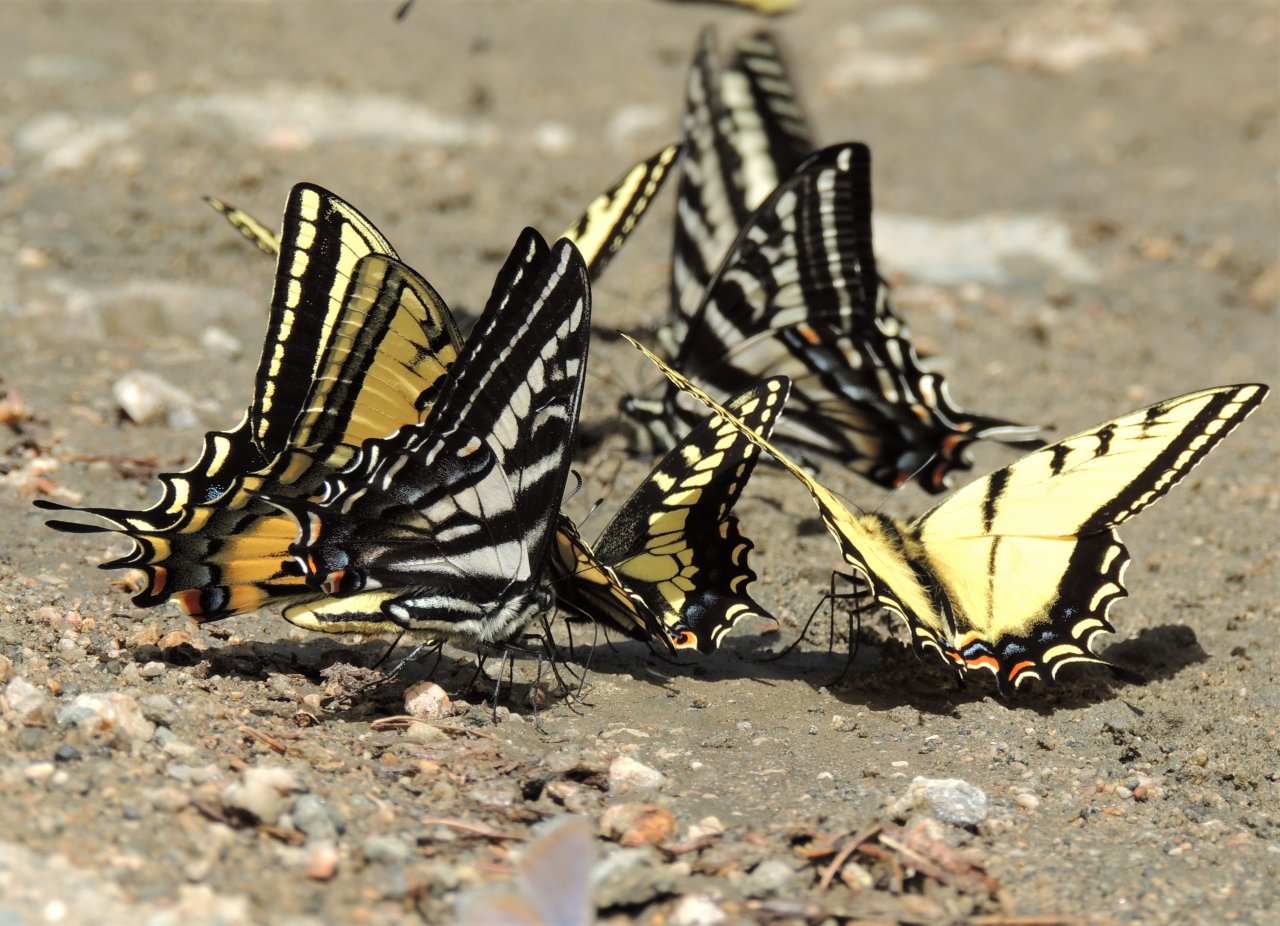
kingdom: Animalia
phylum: Arthropoda
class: Insecta
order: Lepidoptera
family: Papilionidae
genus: Pterourus
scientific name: Pterourus eurymedon
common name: Pale Swallowtail
